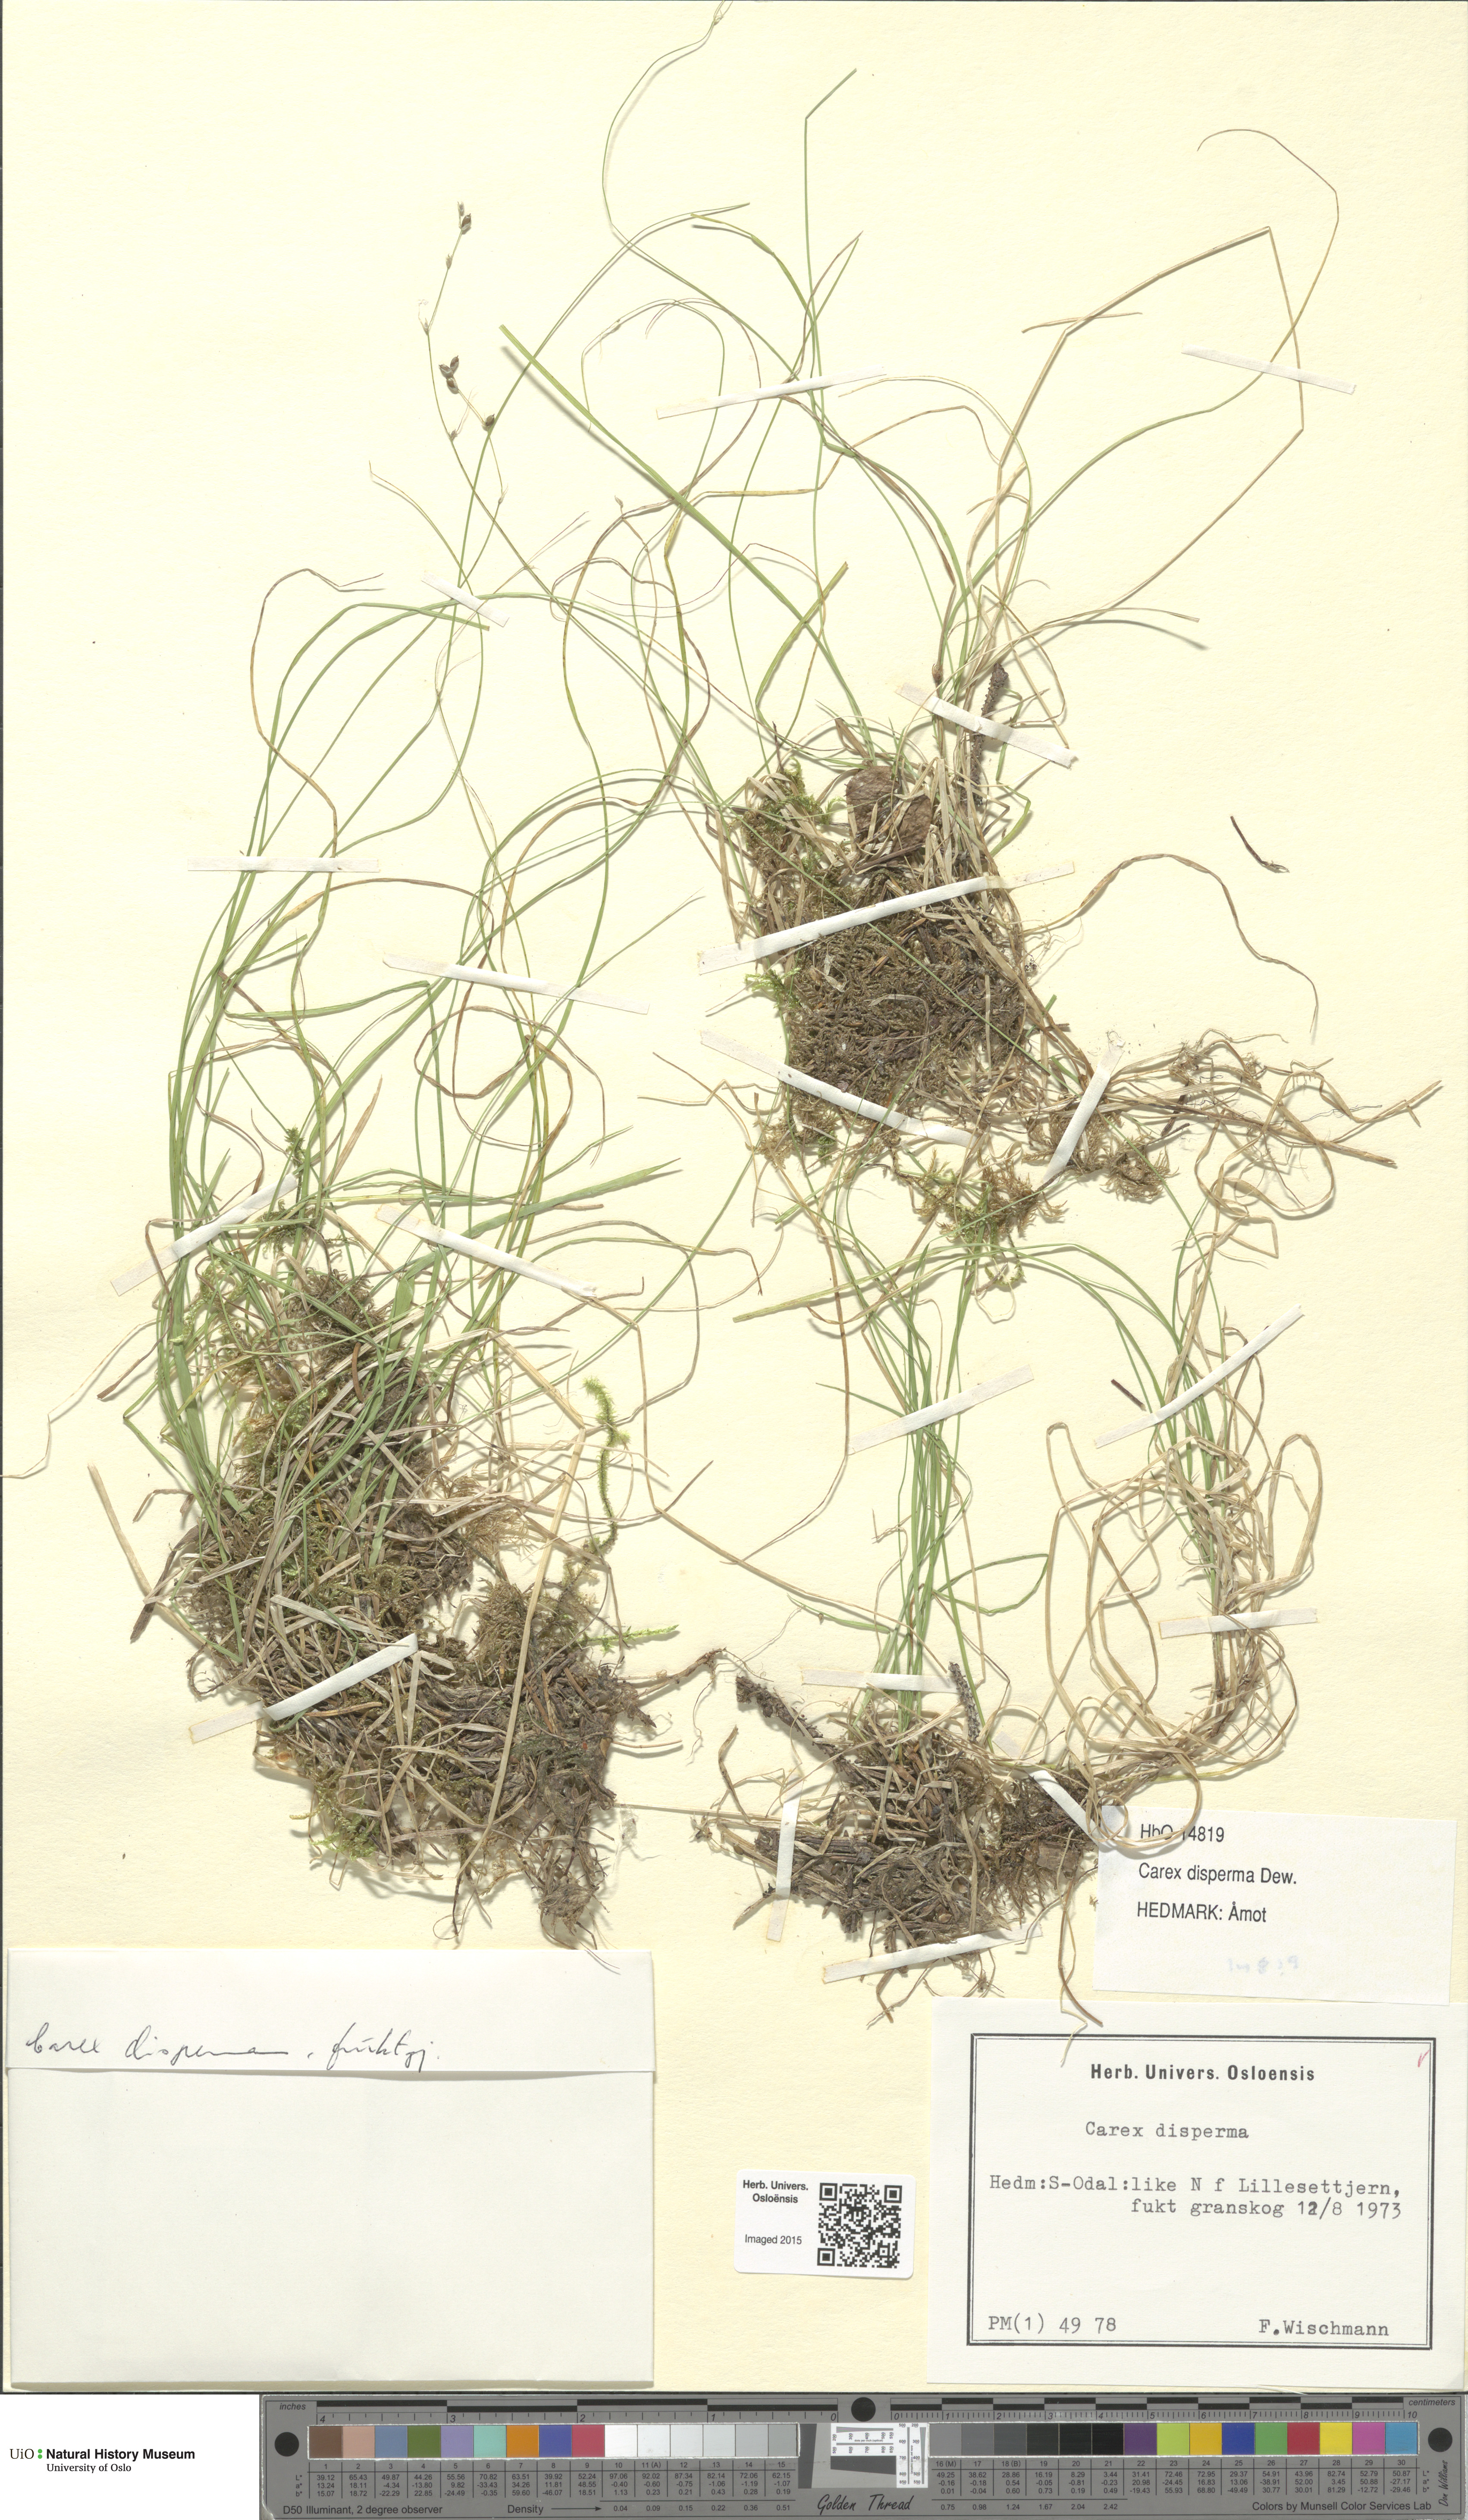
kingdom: Plantae
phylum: Tracheophyta
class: Liliopsida
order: Poales
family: Cyperaceae
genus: Carex
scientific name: Carex disperma
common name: Short-leaved sedge
